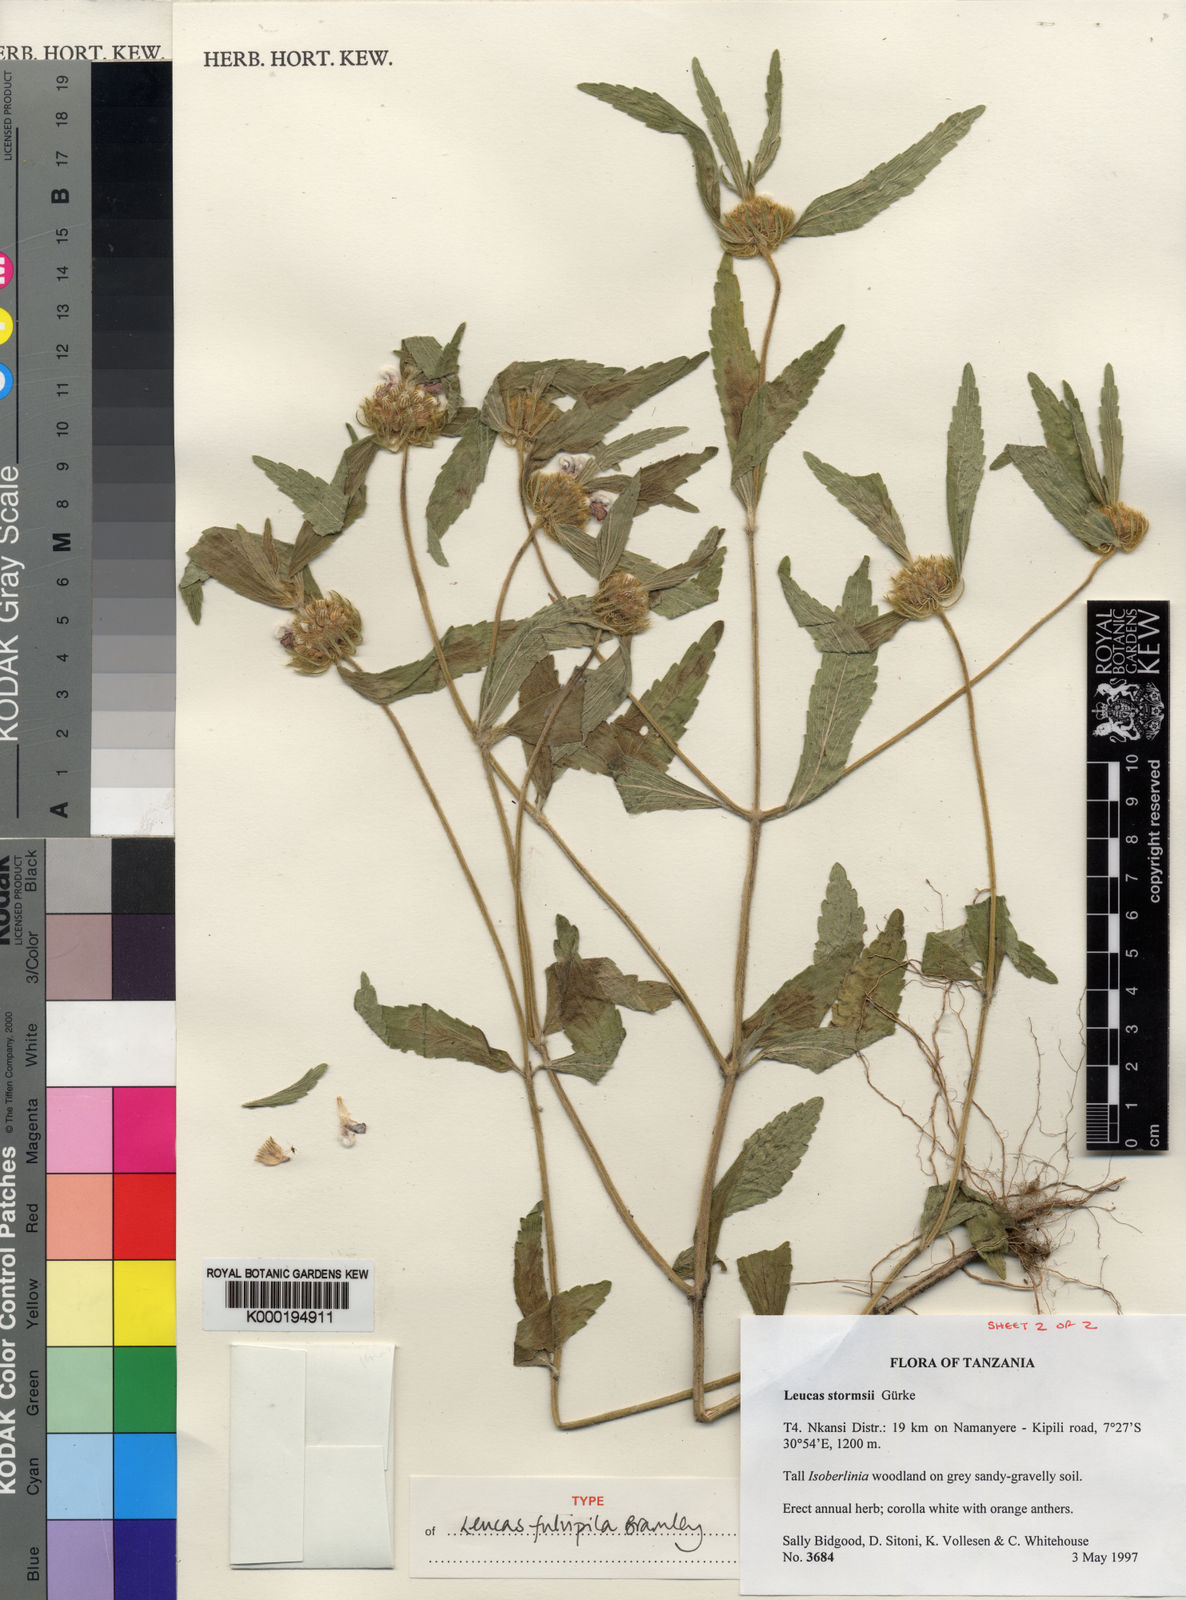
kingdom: Plantae
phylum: Tracheophyta
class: Magnoliopsida
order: Lamiales
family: Lamiaceae
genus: Leucas
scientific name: Leucas
